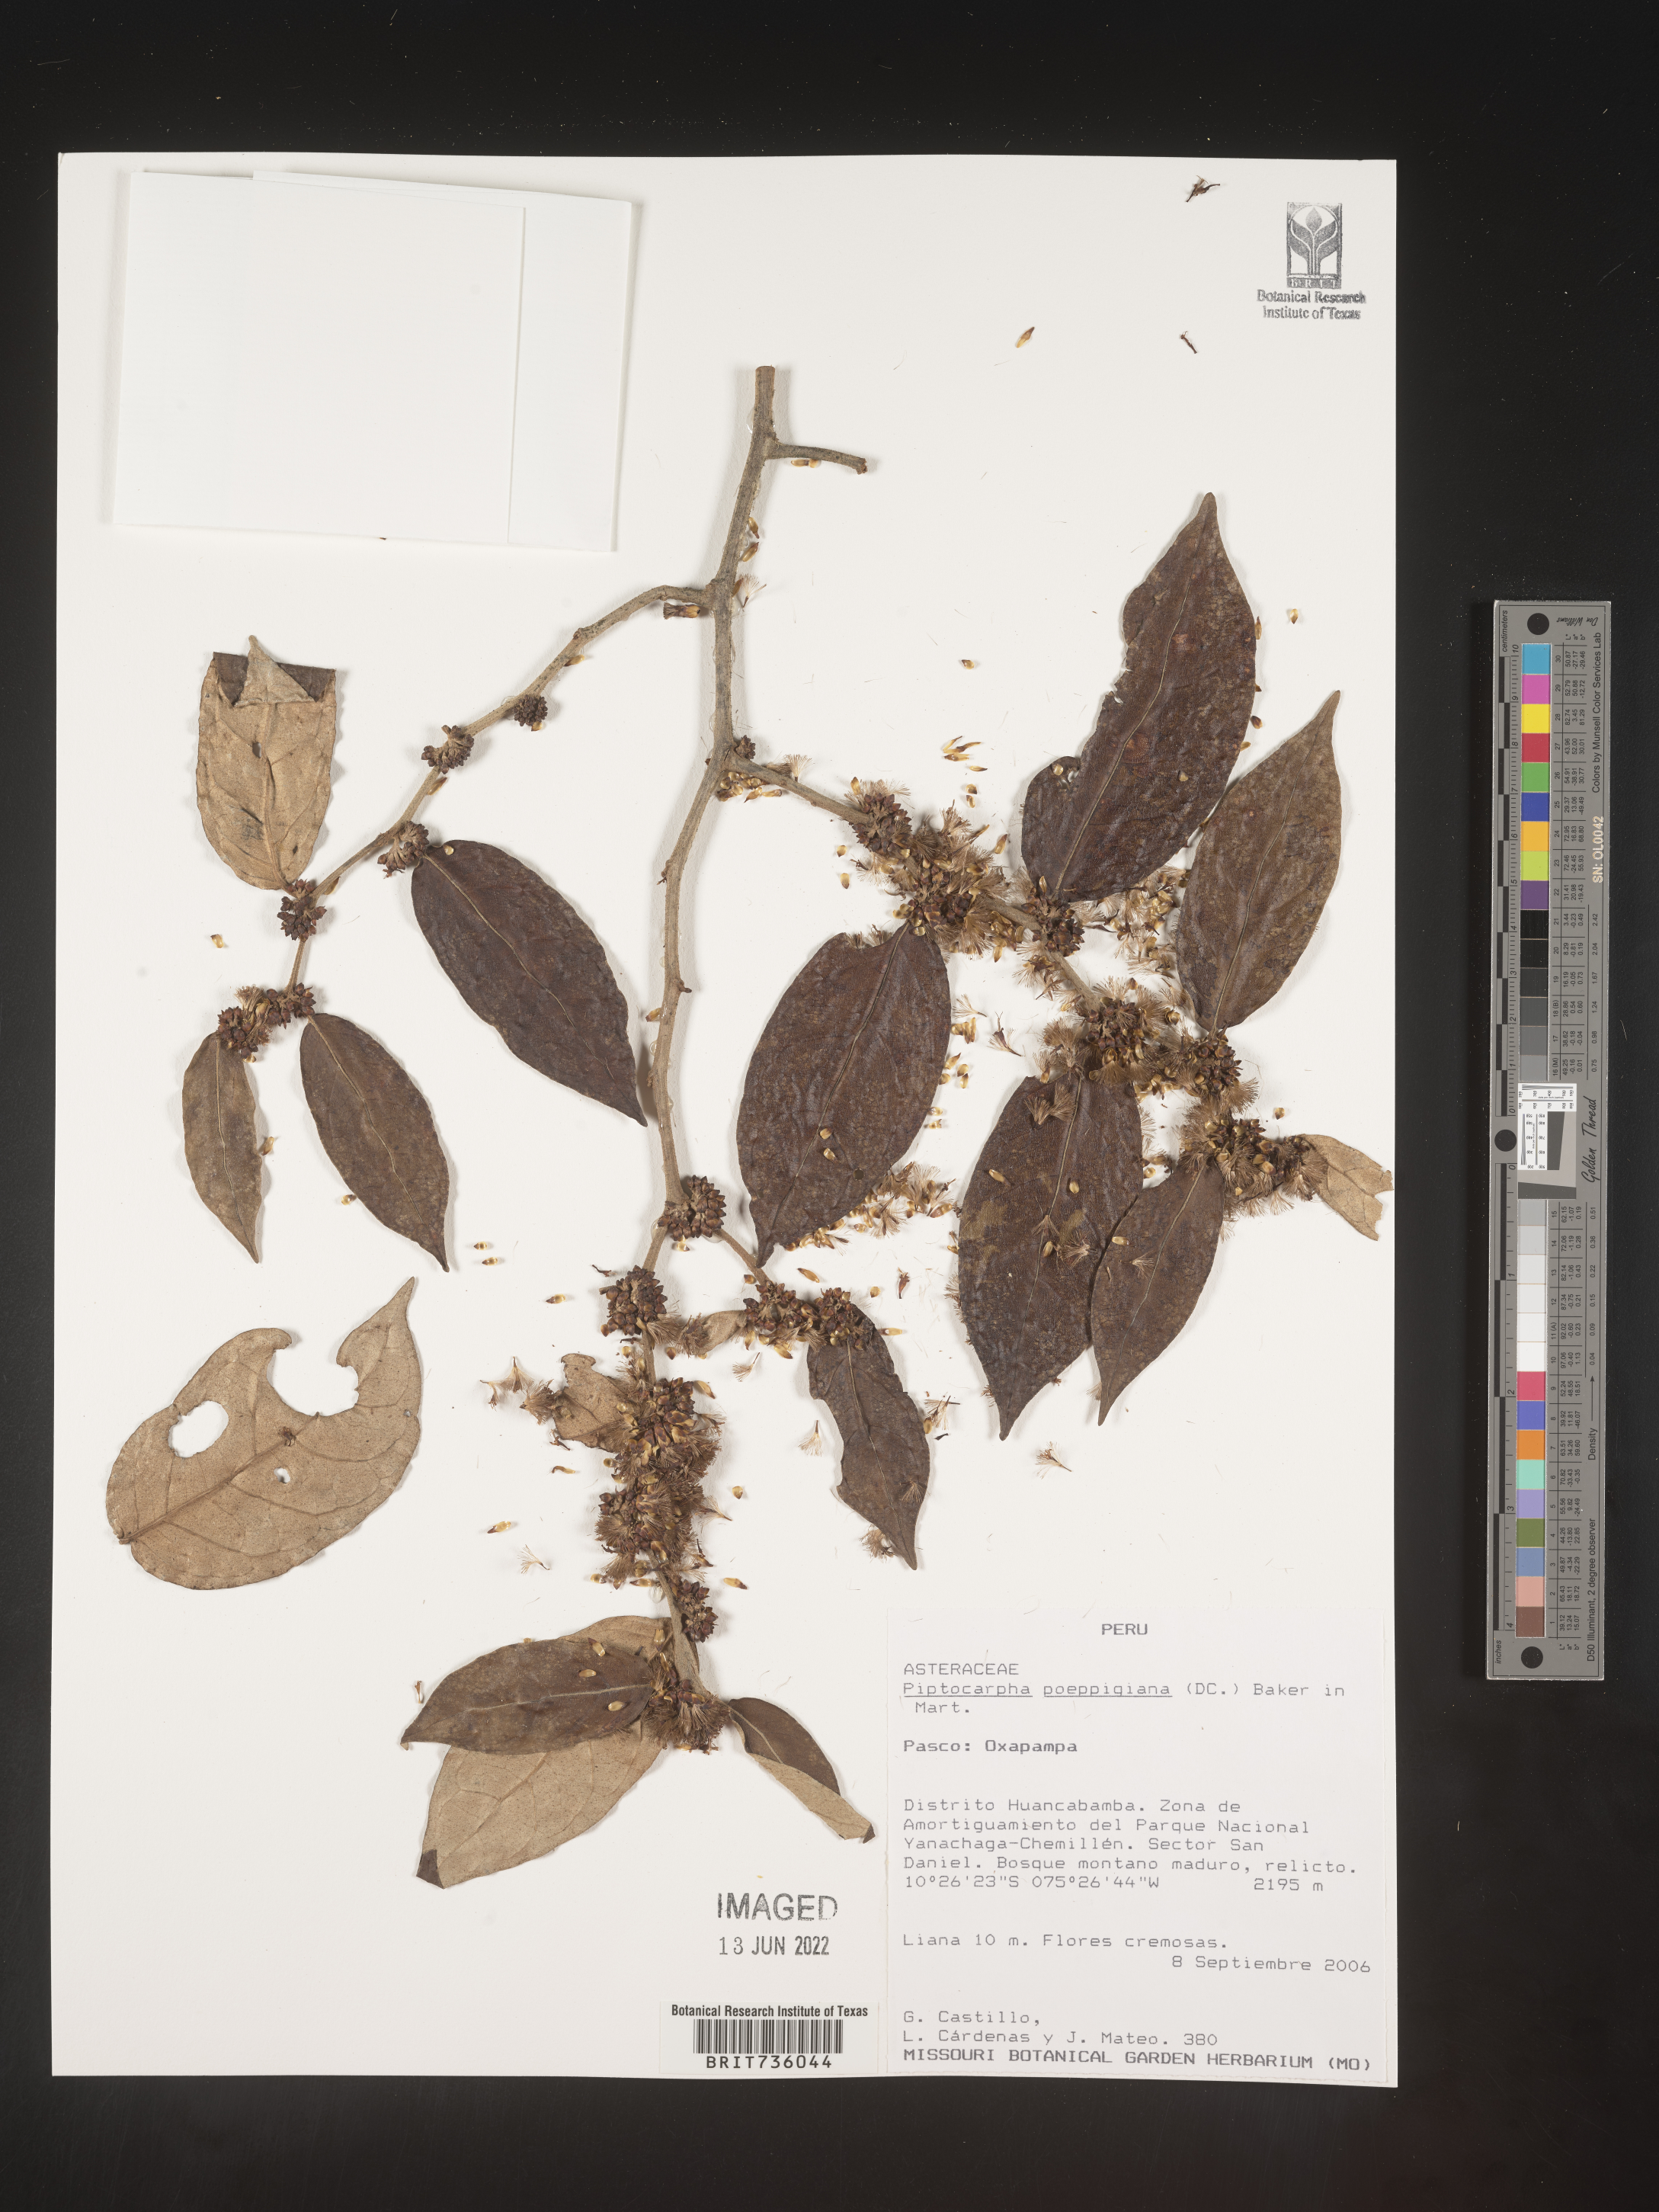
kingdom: Plantae
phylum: Tracheophyta
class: Magnoliopsida
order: Asterales
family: Asteraceae
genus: Piptocarpha
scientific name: Piptocarpha
